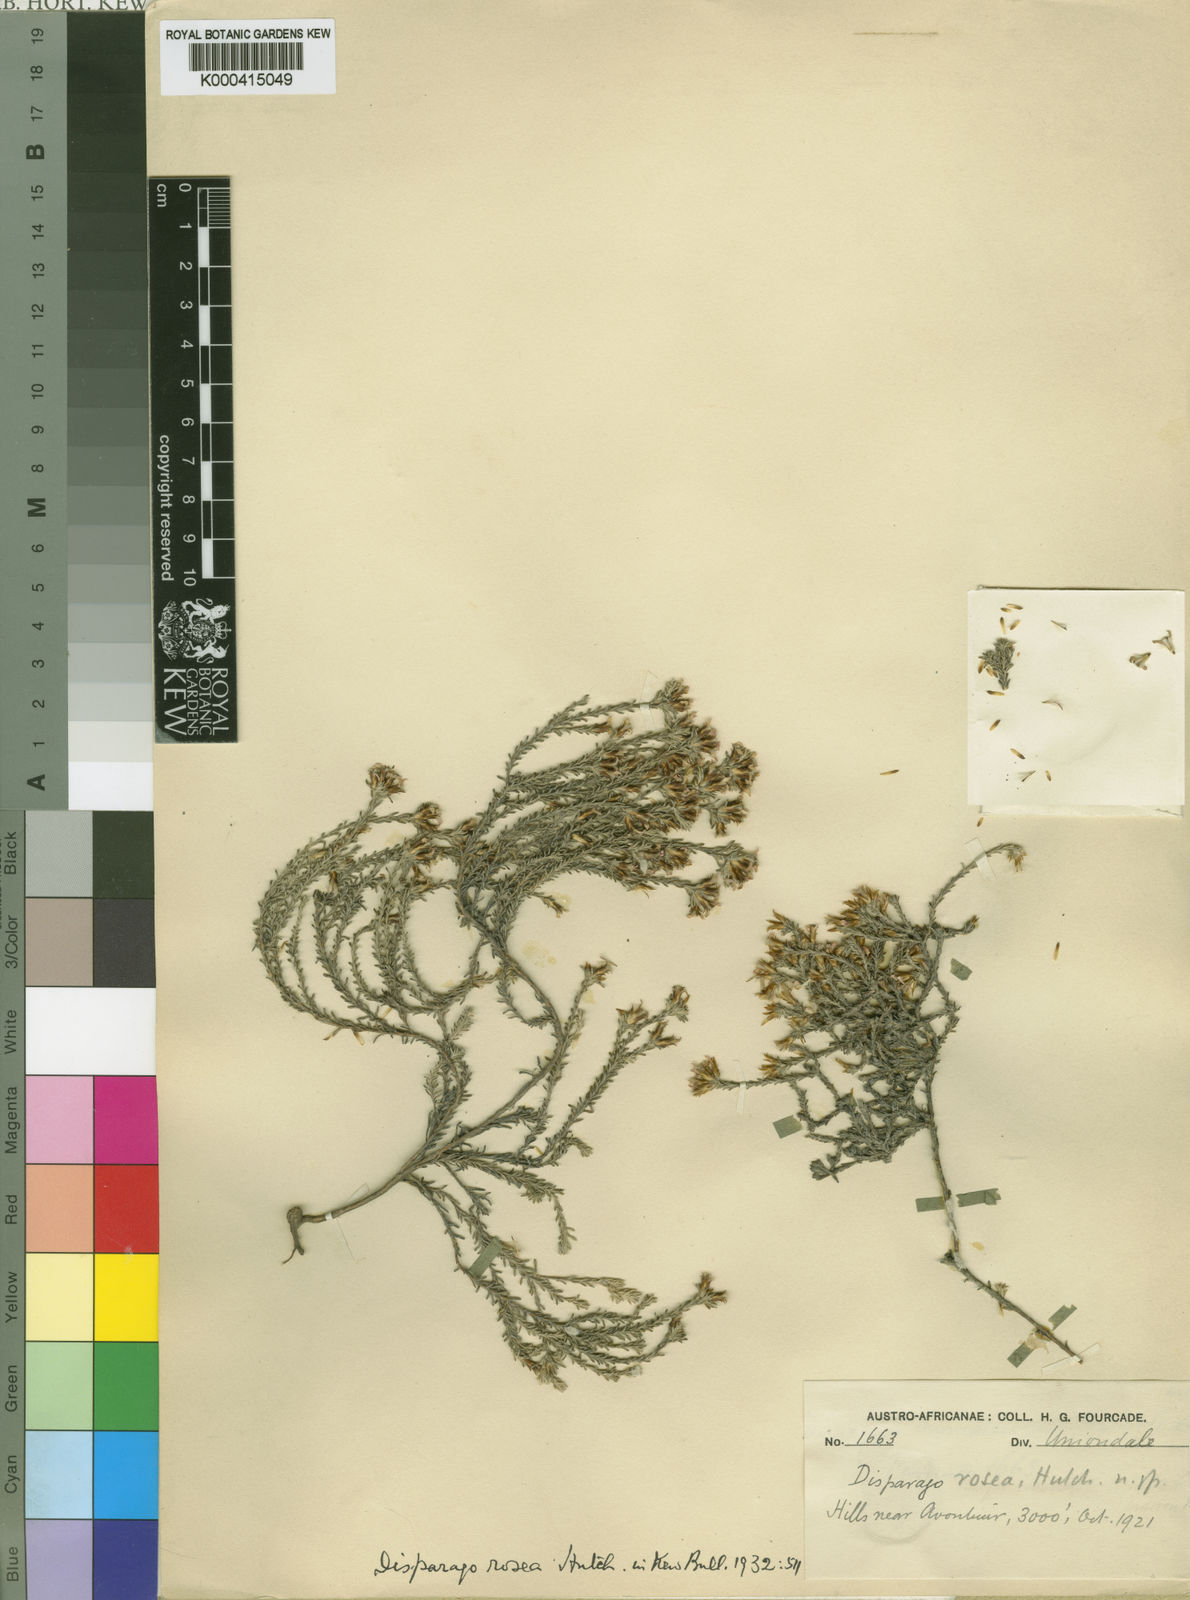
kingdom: Plantae
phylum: Tracheophyta
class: Magnoliopsida
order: Asterales
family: Asteraceae
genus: Disparago
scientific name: Disparago kolbei
